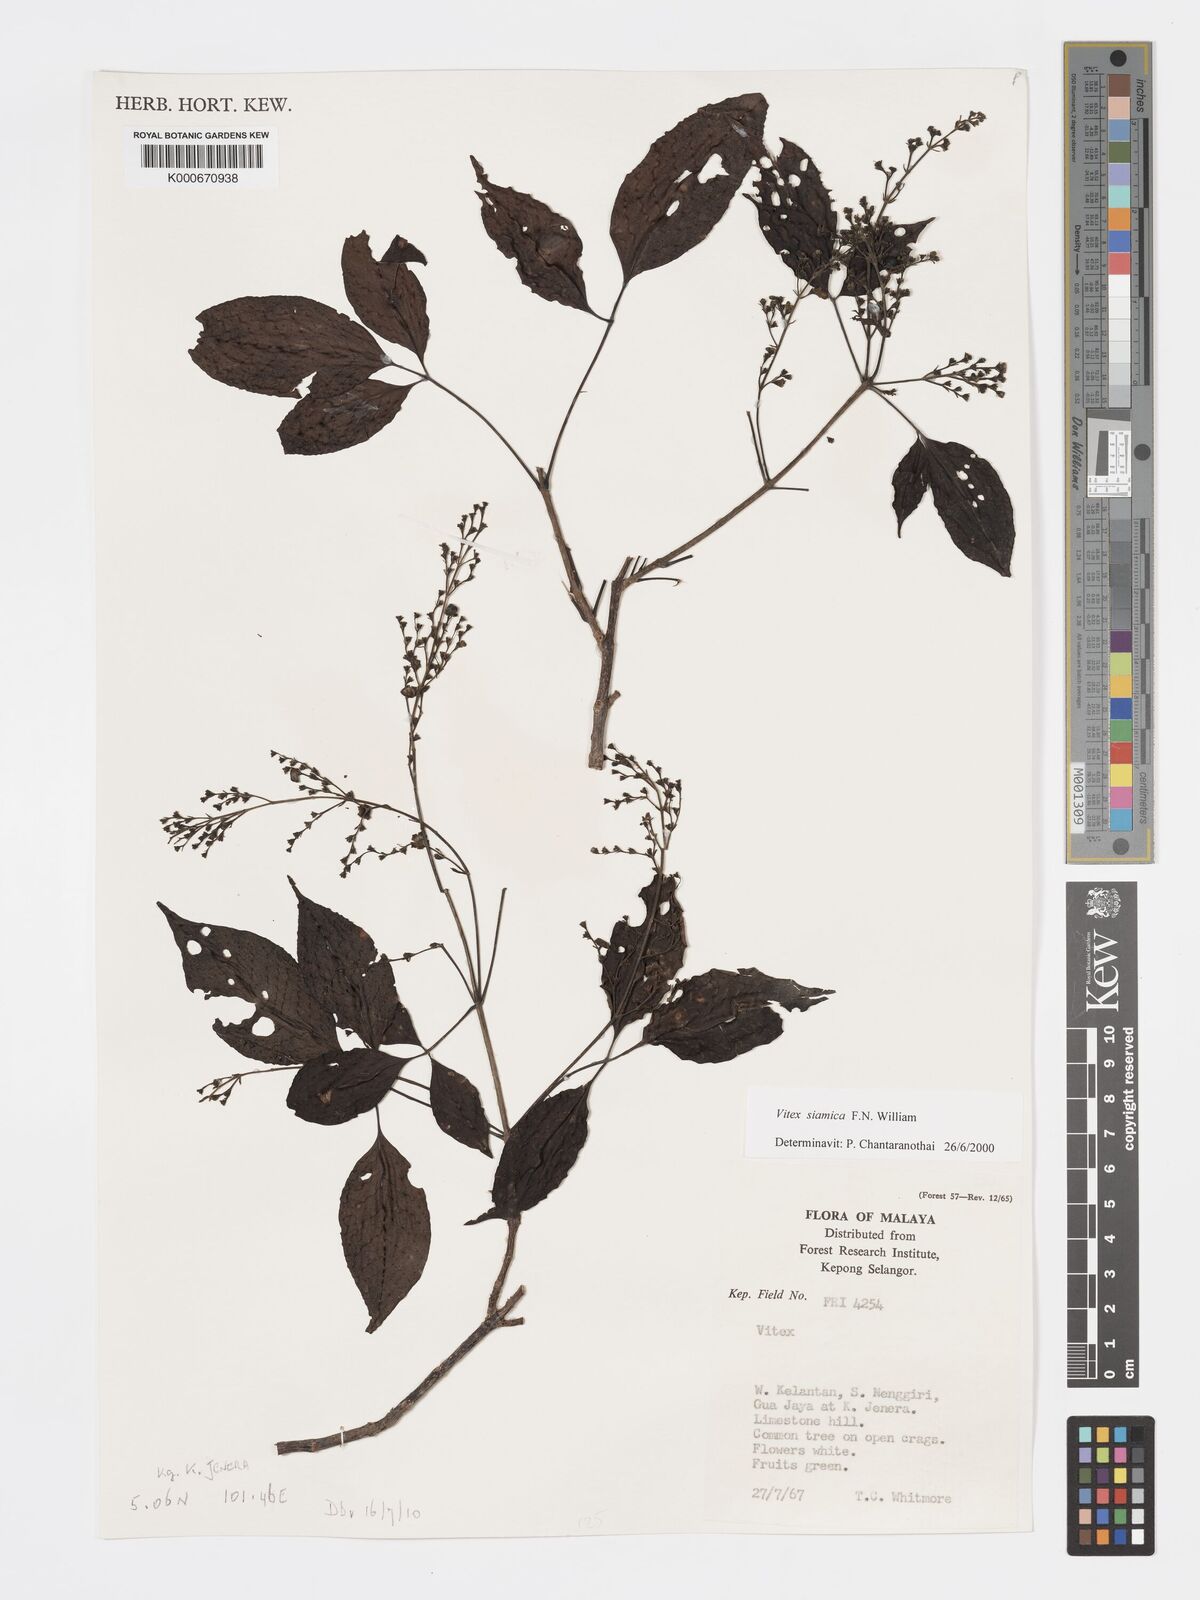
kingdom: Plantae
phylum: Tracheophyta
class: Magnoliopsida
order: Lamiales
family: Lamiaceae
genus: Vitex
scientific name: Vitex siamica
